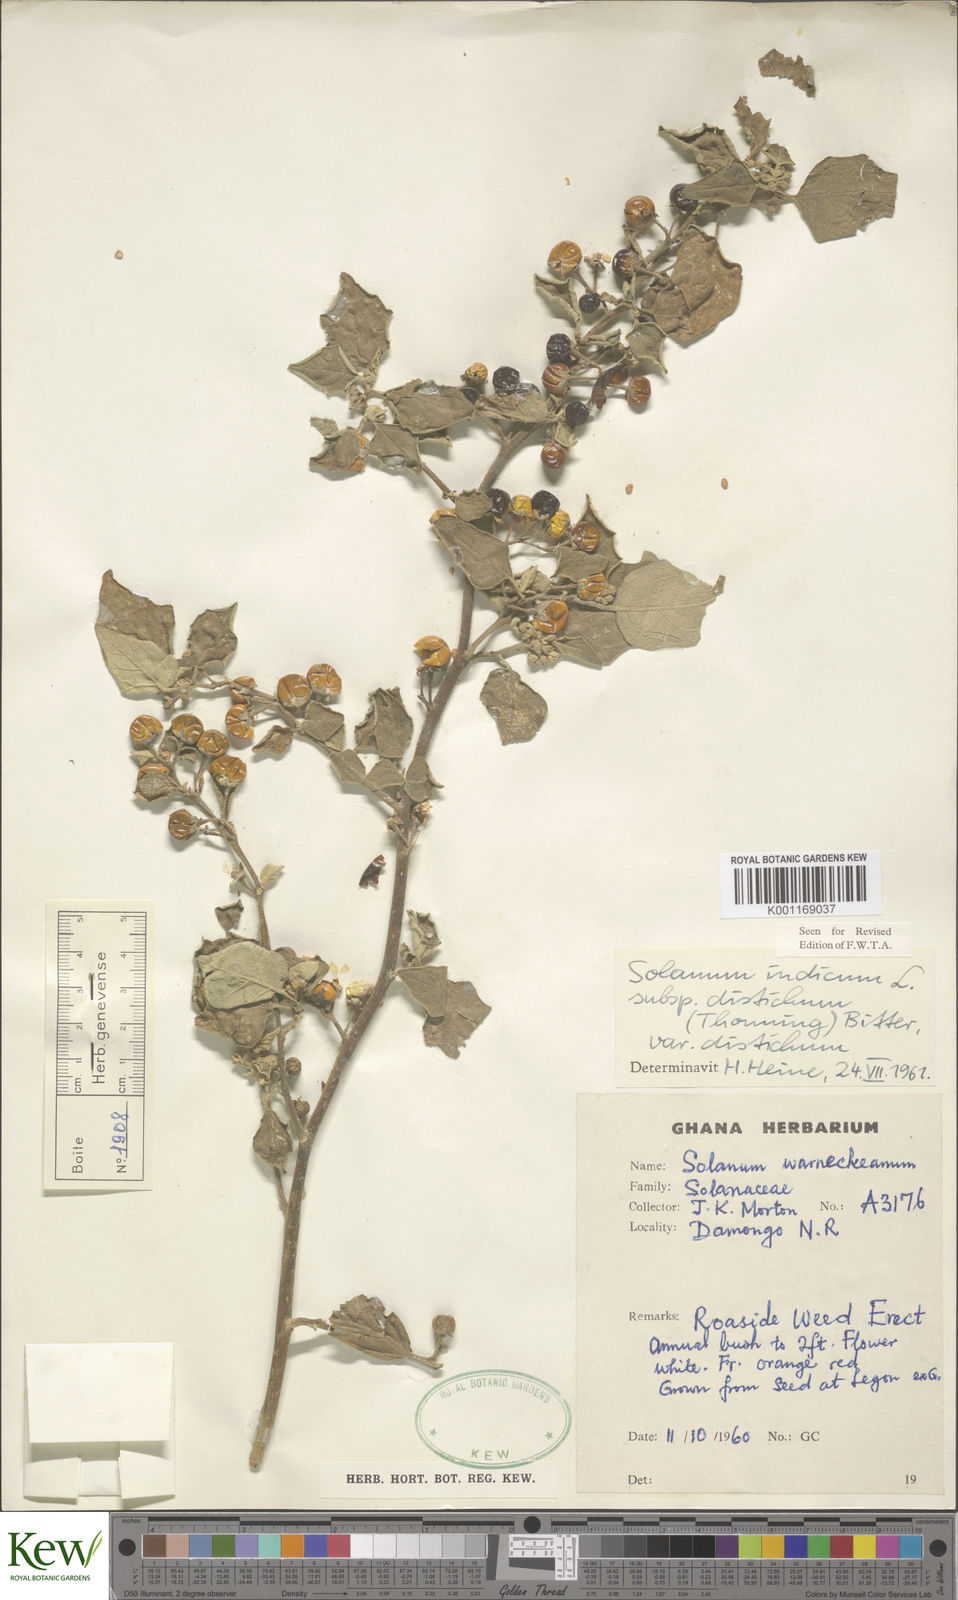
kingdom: Plantae
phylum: Tracheophyta
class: Magnoliopsida
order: Solanales
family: Solanaceae
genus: Solanum
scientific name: Solanum anguivi
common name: Forest bitterberry
